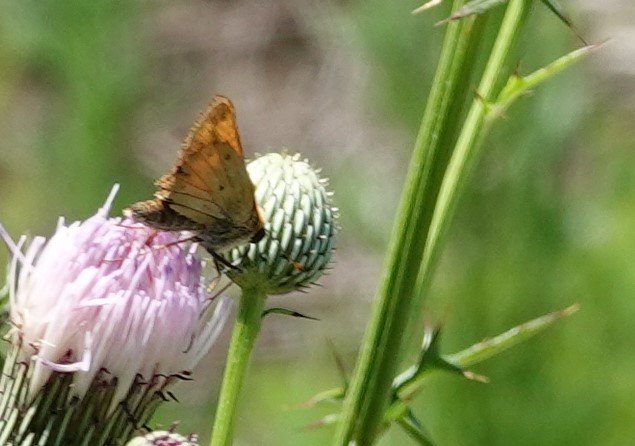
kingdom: Animalia
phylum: Arthropoda
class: Insecta
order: Lepidoptera
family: Hesperiidae
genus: Lon
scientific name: Lon zabulon
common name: Zabulon Skipper
